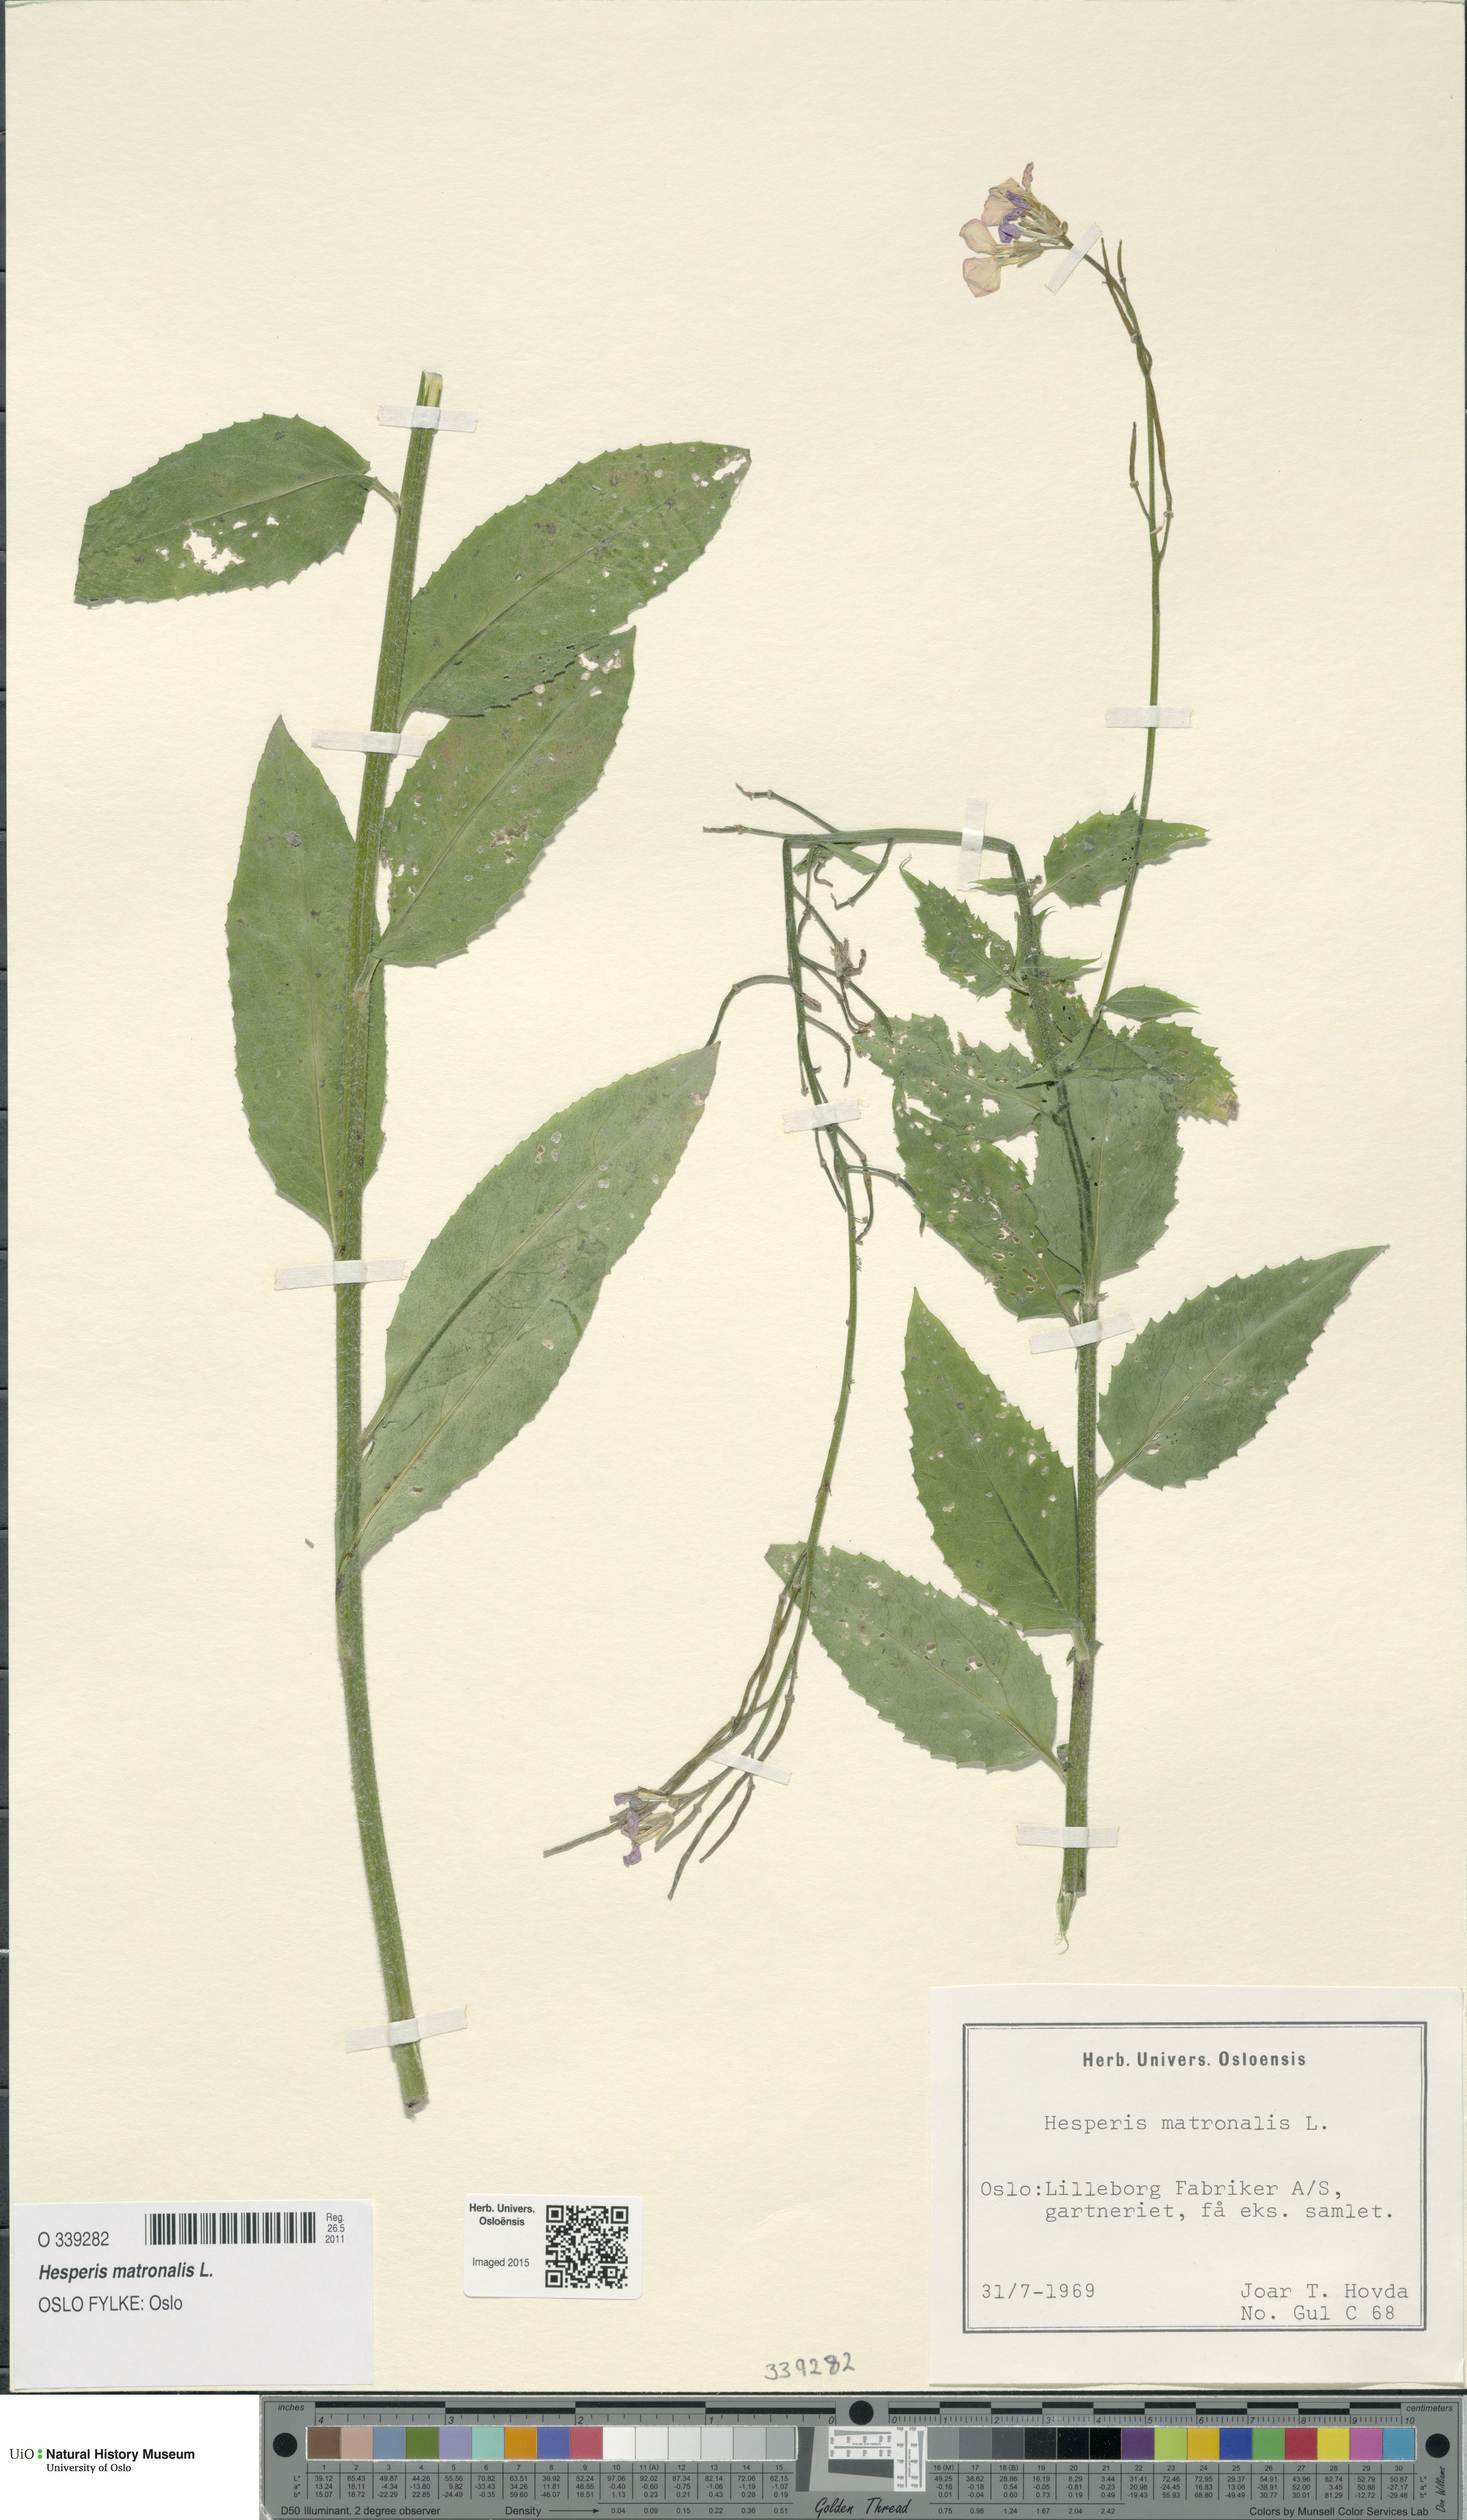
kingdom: Plantae
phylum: Tracheophyta
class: Magnoliopsida
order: Brassicales
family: Brassicaceae
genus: Hesperis
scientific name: Hesperis matronalis
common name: Dame's-violet
